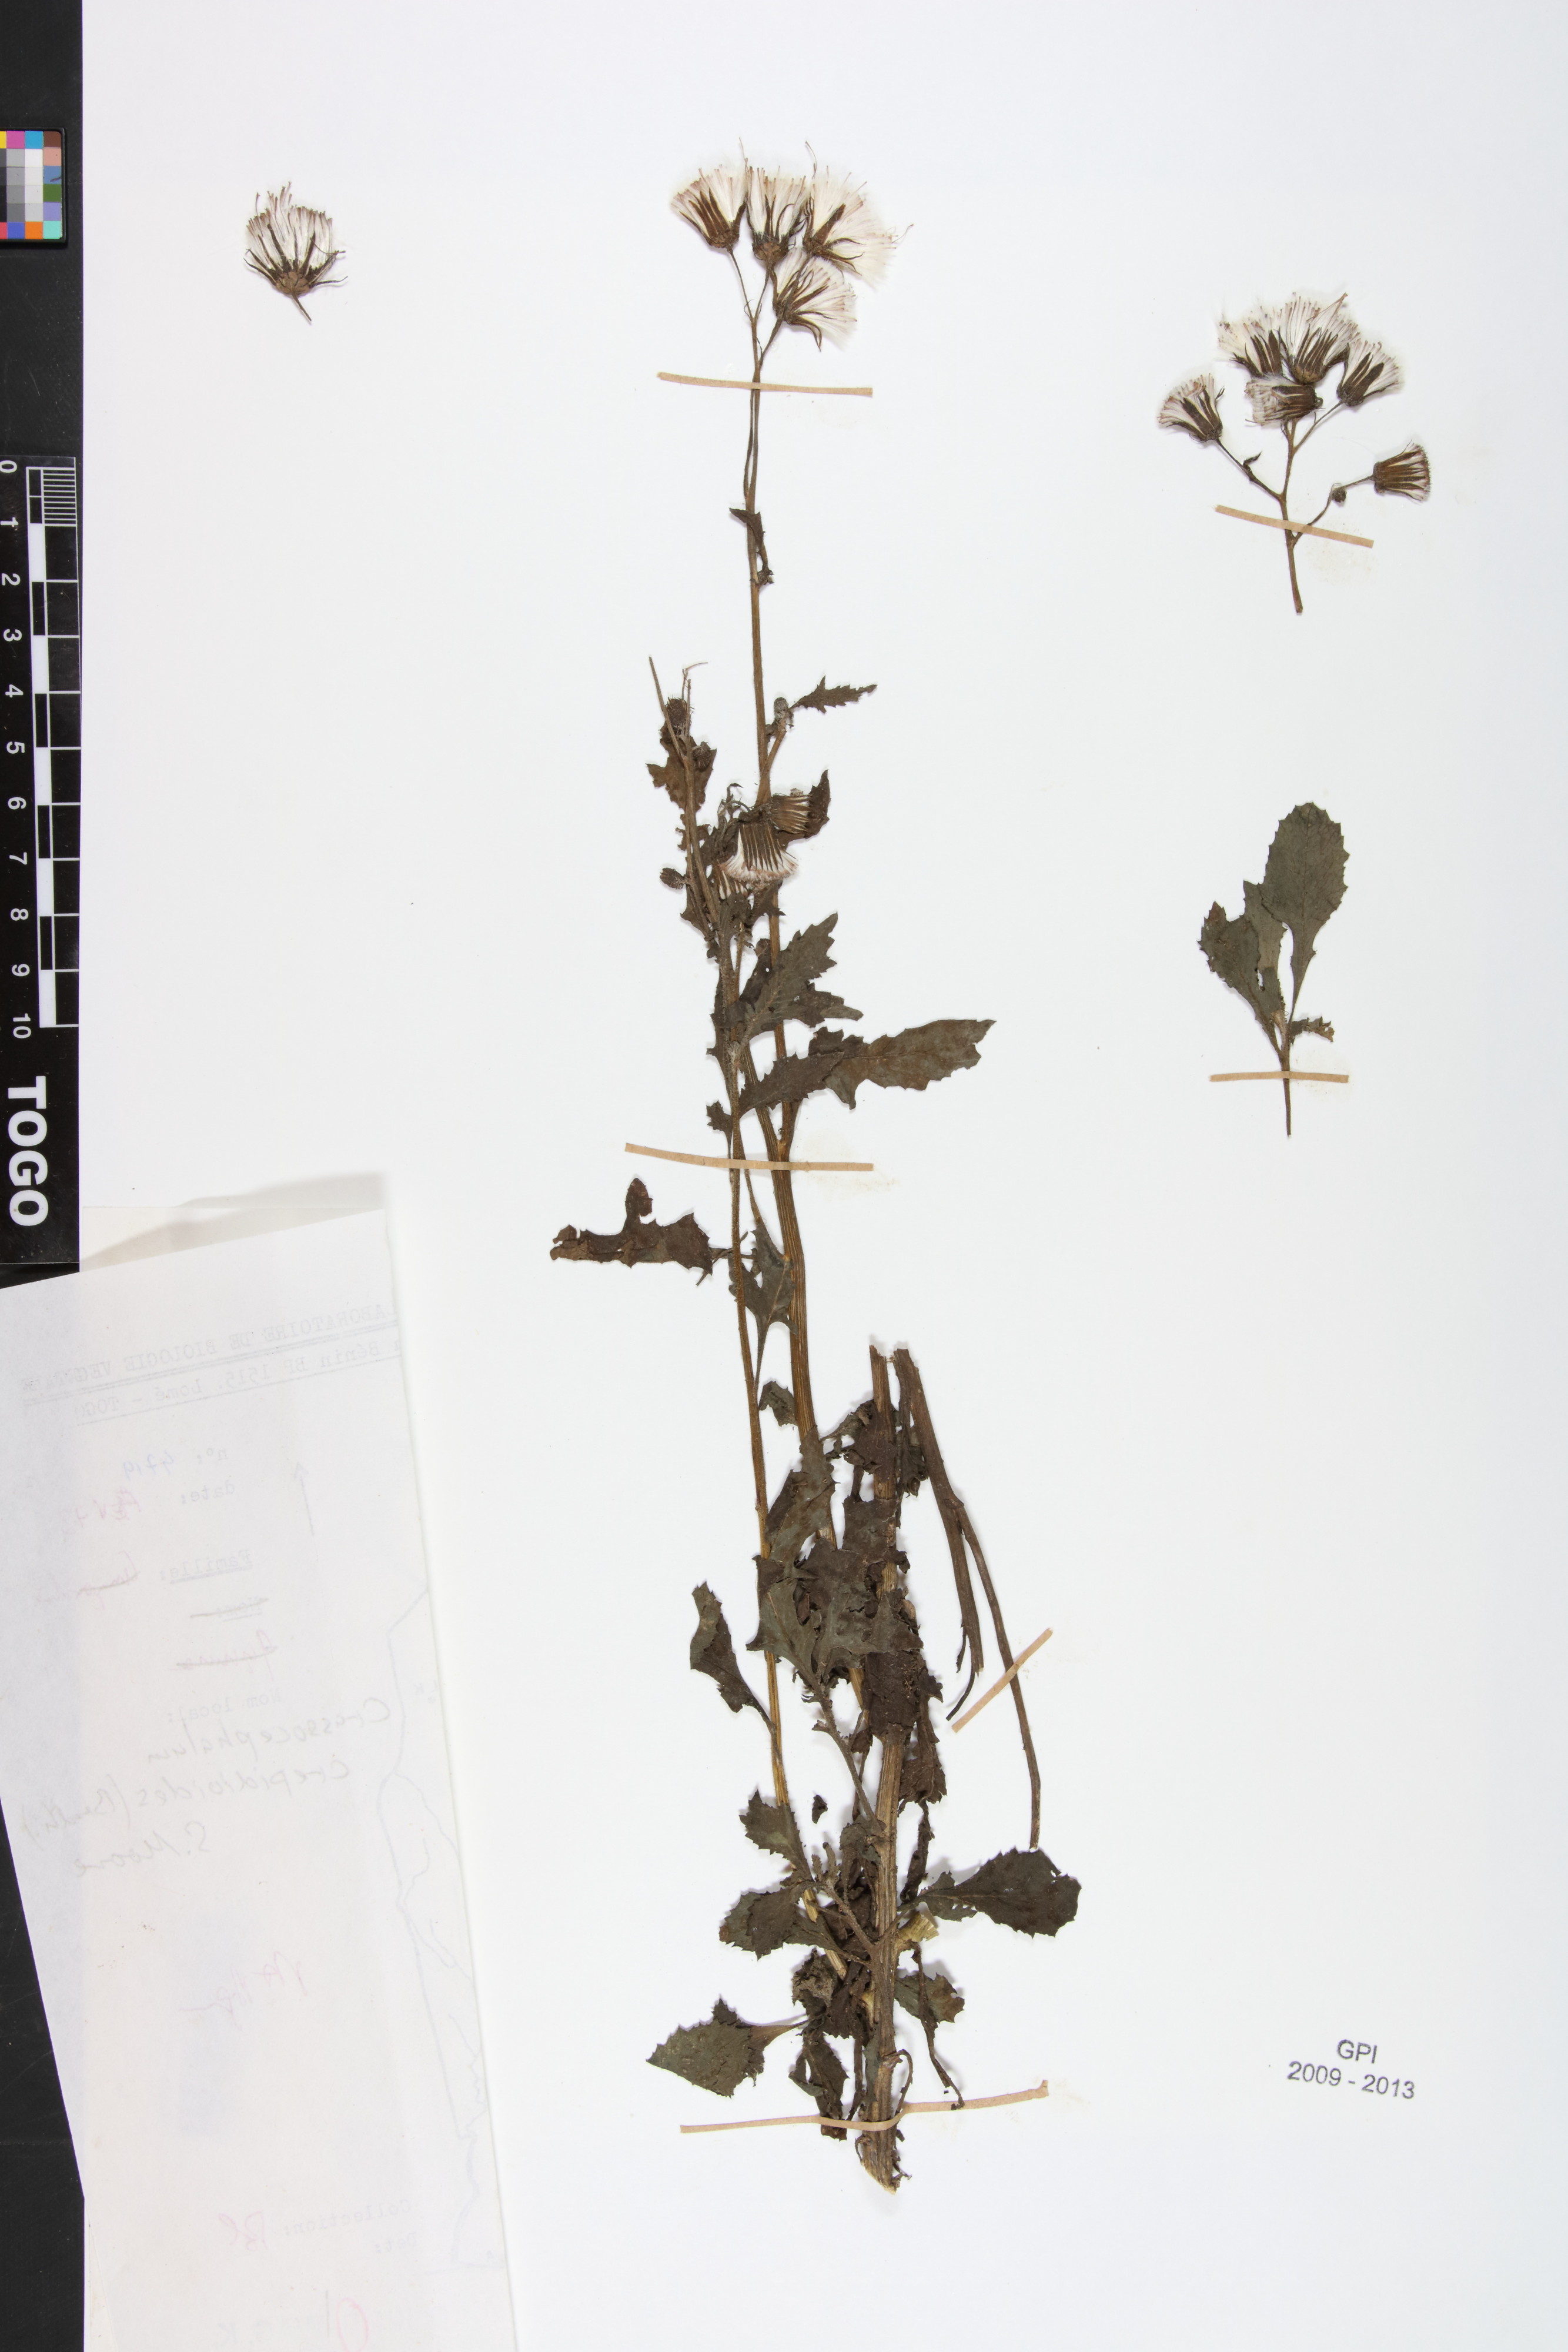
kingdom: Plantae
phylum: Tracheophyta
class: Magnoliopsida
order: Asterales
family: Asteraceae
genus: Crassocephalum
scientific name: Crassocephalum crepidioides
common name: Redflower ragleaf
